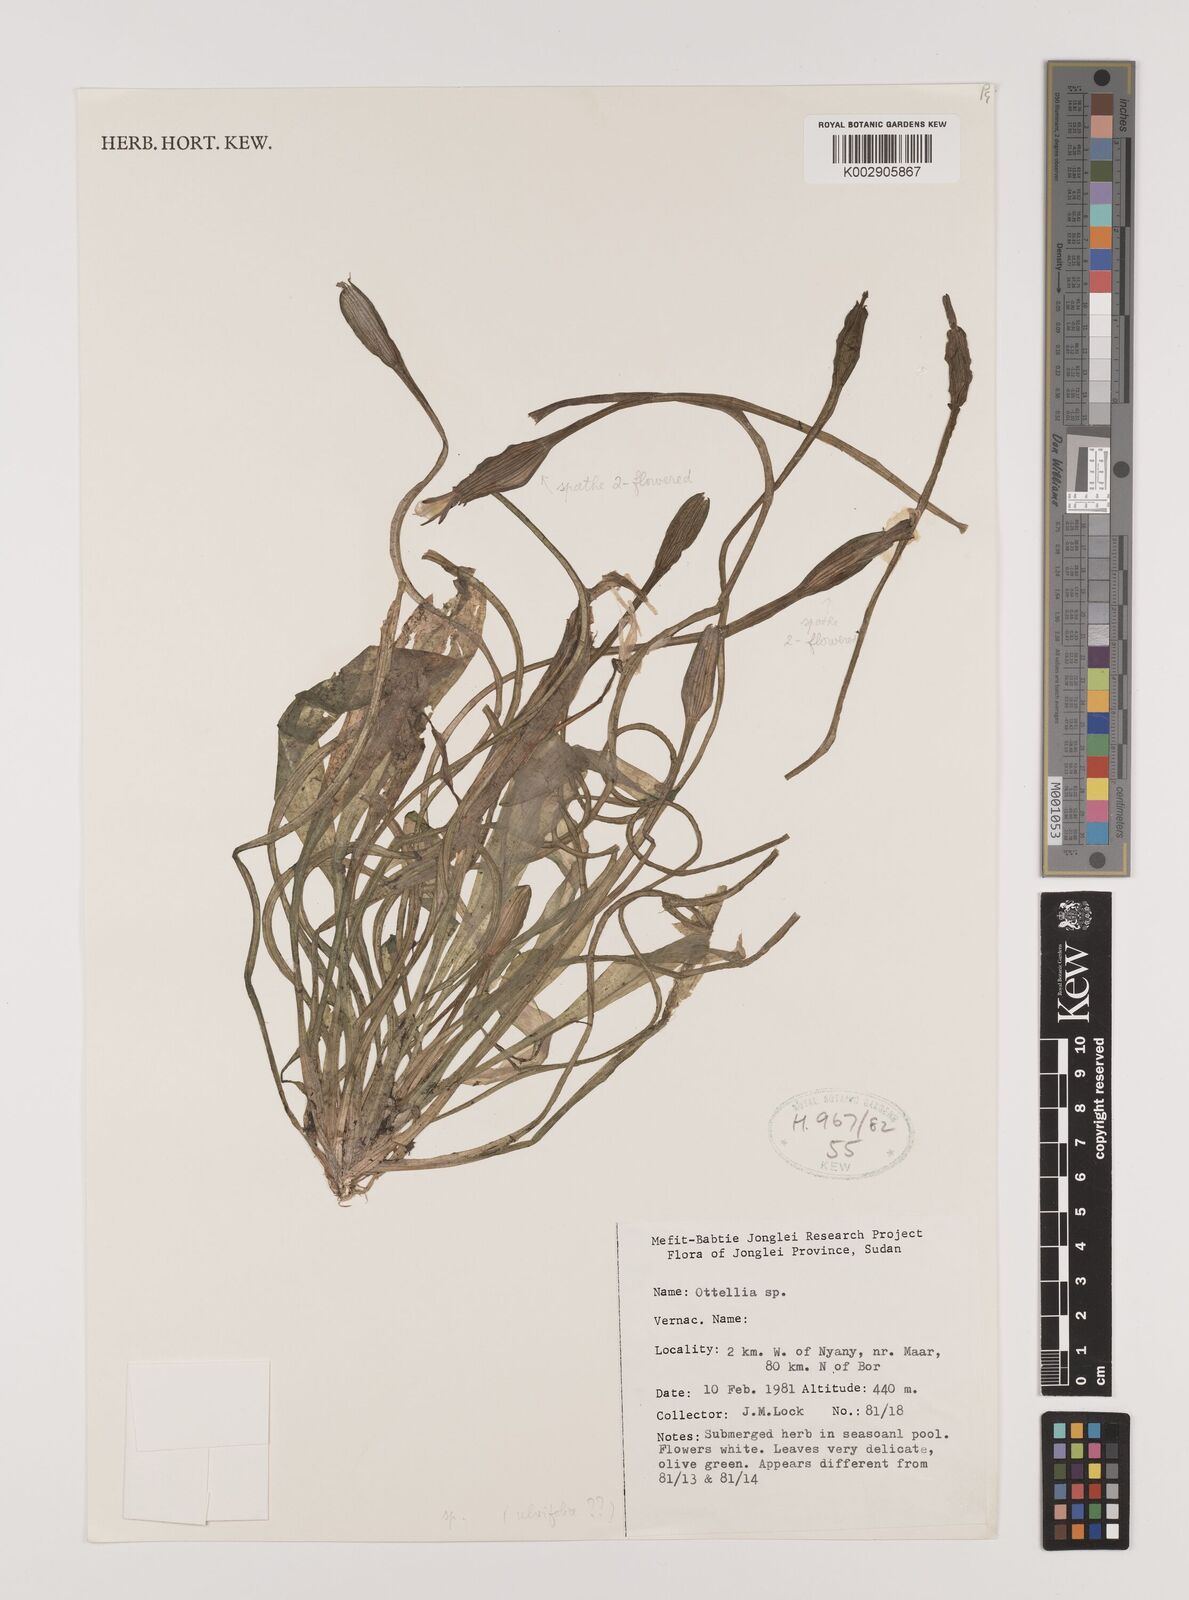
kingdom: Plantae
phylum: Tracheophyta
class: Liliopsida
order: Alismatales
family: Hydrocharitaceae
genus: Ottelia
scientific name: Ottelia
